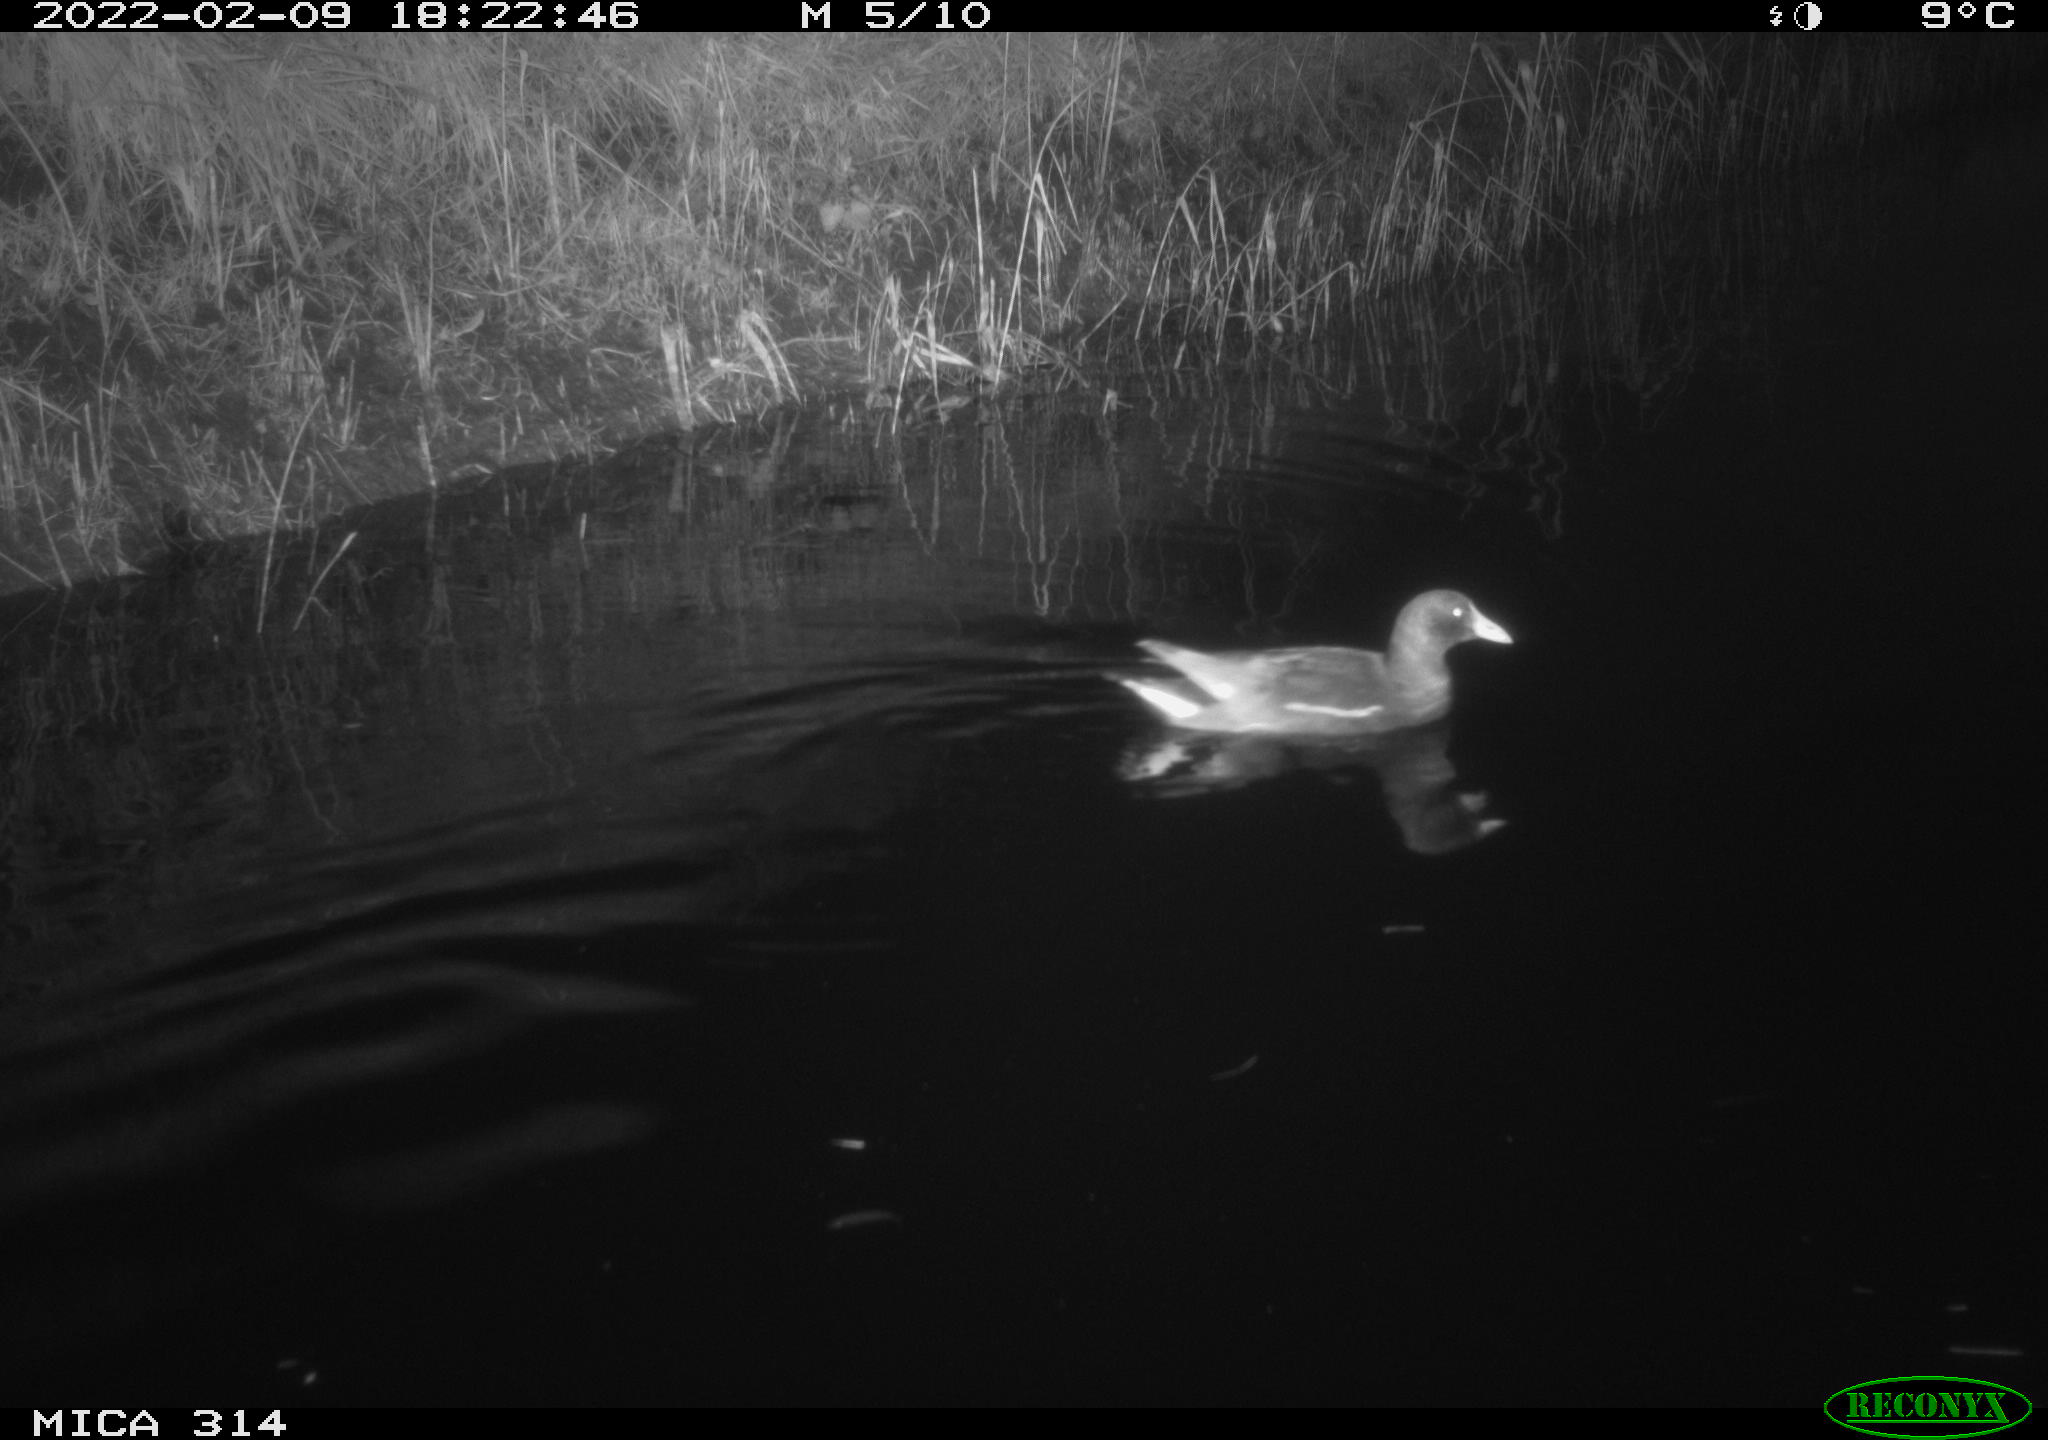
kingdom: Animalia
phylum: Chordata
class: Aves
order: Gruiformes
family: Rallidae
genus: Gallinula
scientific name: Gallinula chloropus
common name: Common moorhen
